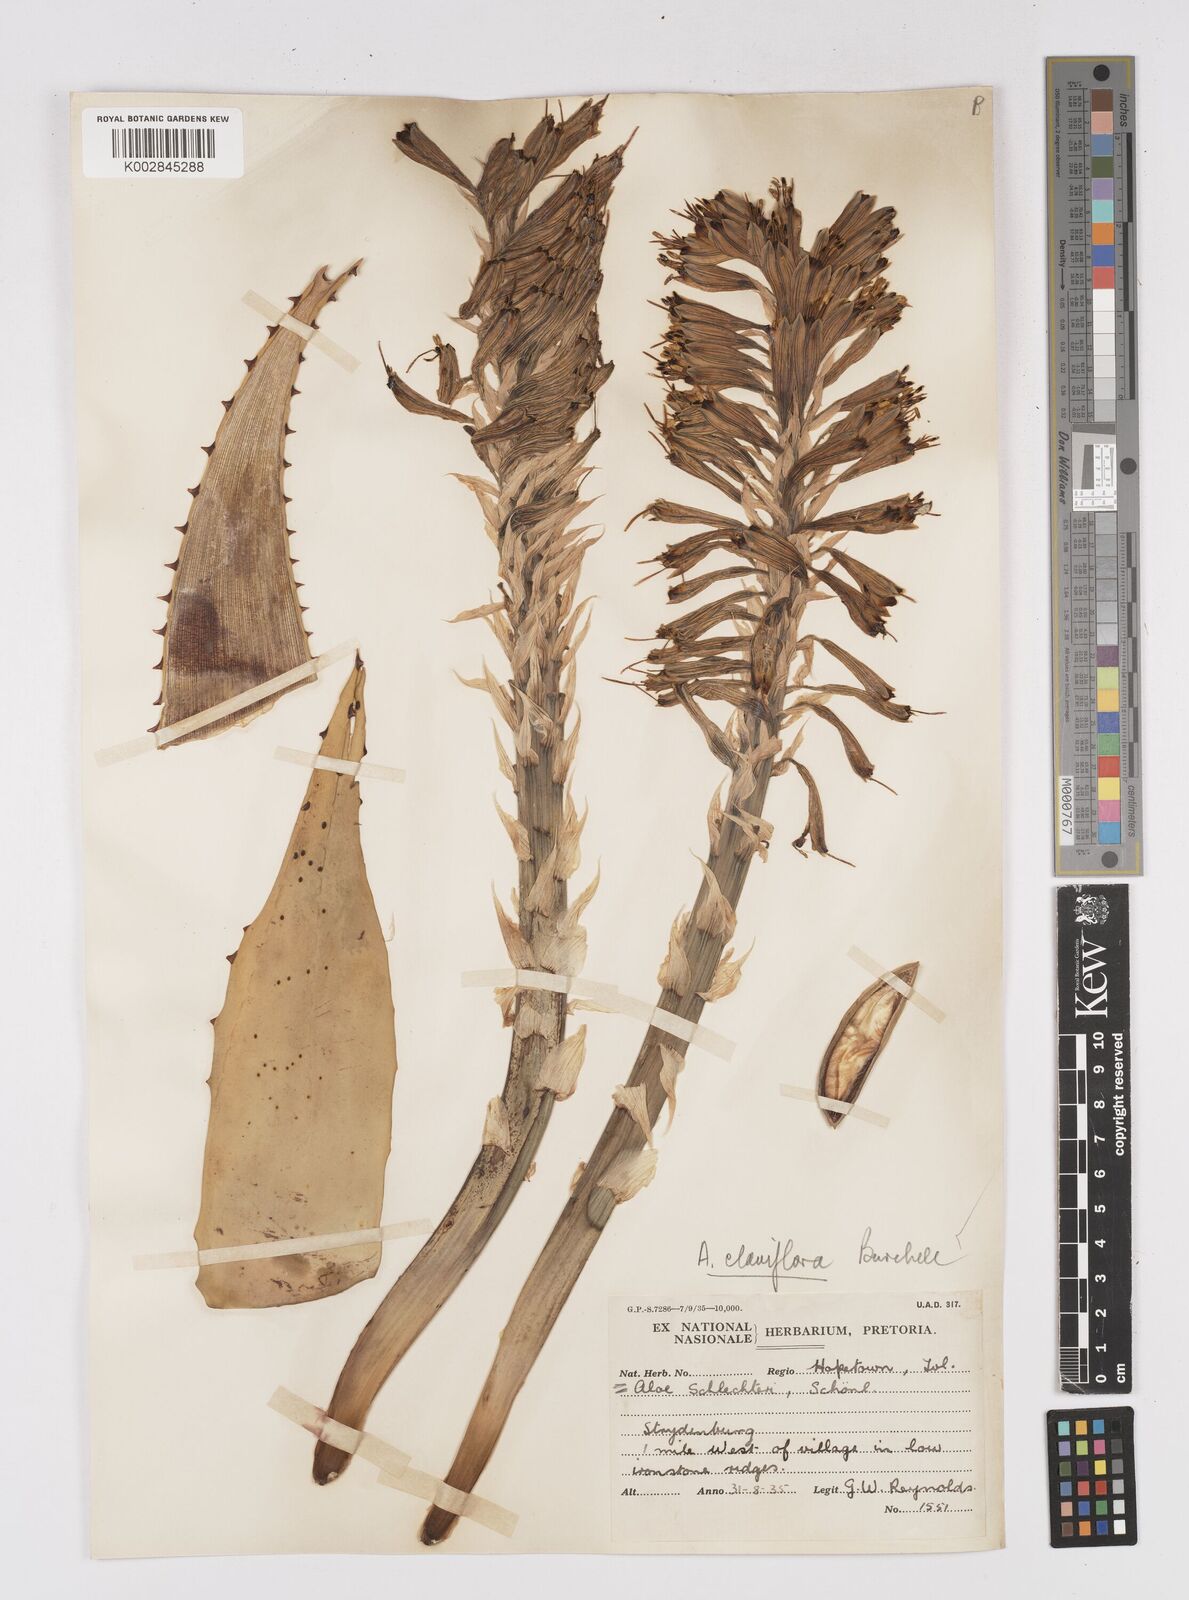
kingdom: Plantae
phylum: Tracheophyta
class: Liliopsida
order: Asparagales
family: Asphodelaceae
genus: Aloe
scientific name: Aloe claviflora
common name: Cannon aloe
